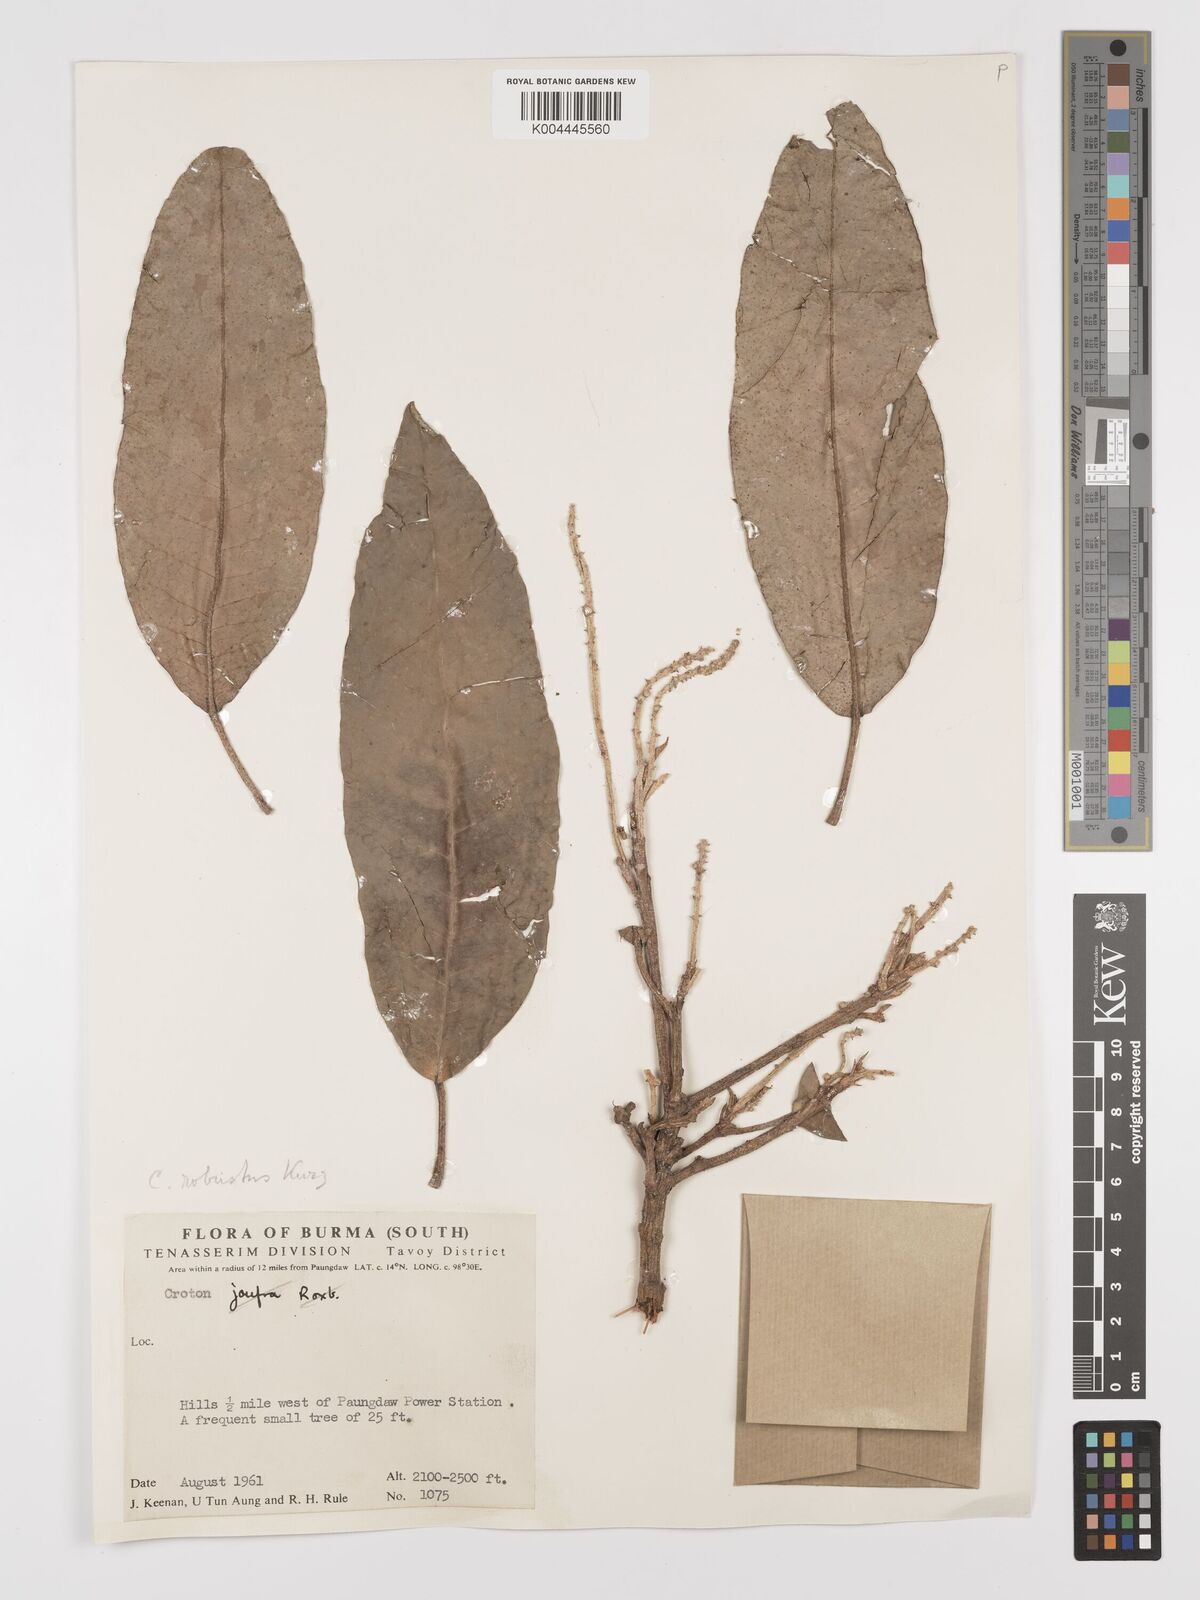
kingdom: Plantae
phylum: Tracheophyta
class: Magnoliopsida
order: Malpighiales
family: Euphorbiaceae
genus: Croton
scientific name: Croton robustus
